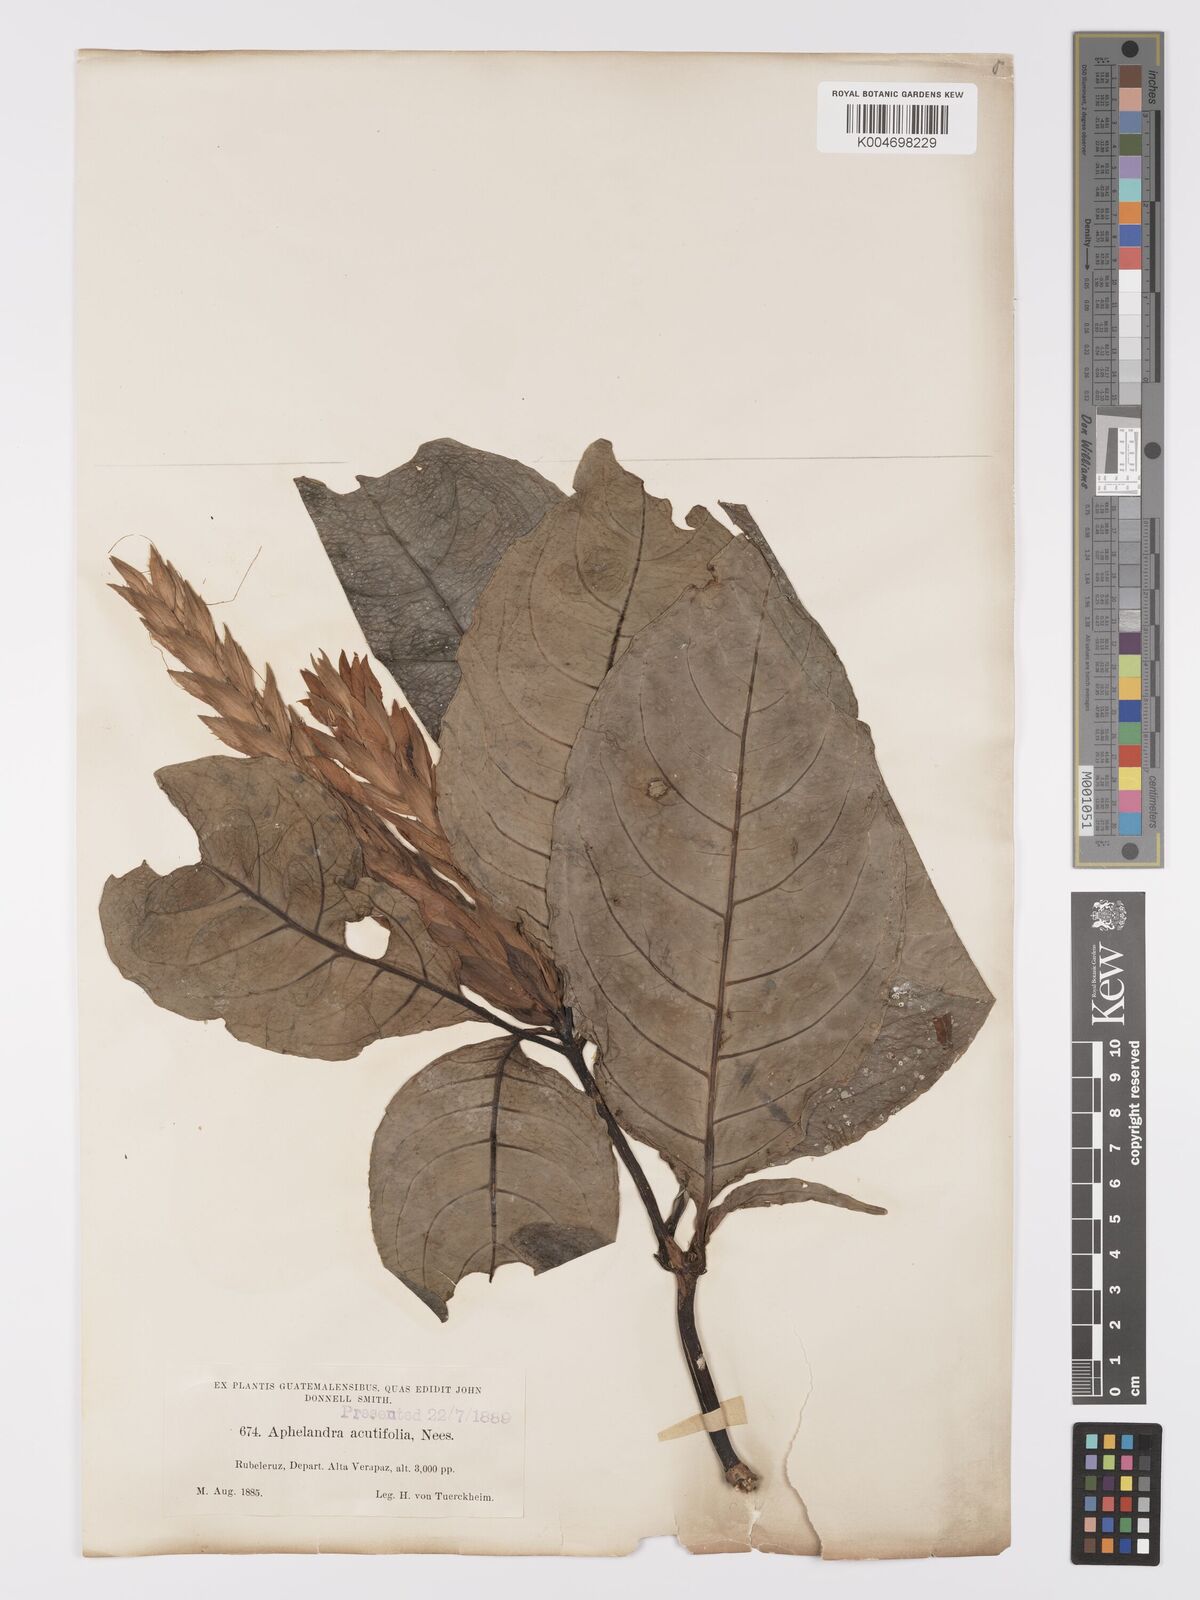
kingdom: Plantae
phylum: Tracheophyta
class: Magnoliopsida
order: Lamiales
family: Acanthaceae
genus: Aphelandra
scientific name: Aphelandra aurantiaca
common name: Fiery spike
